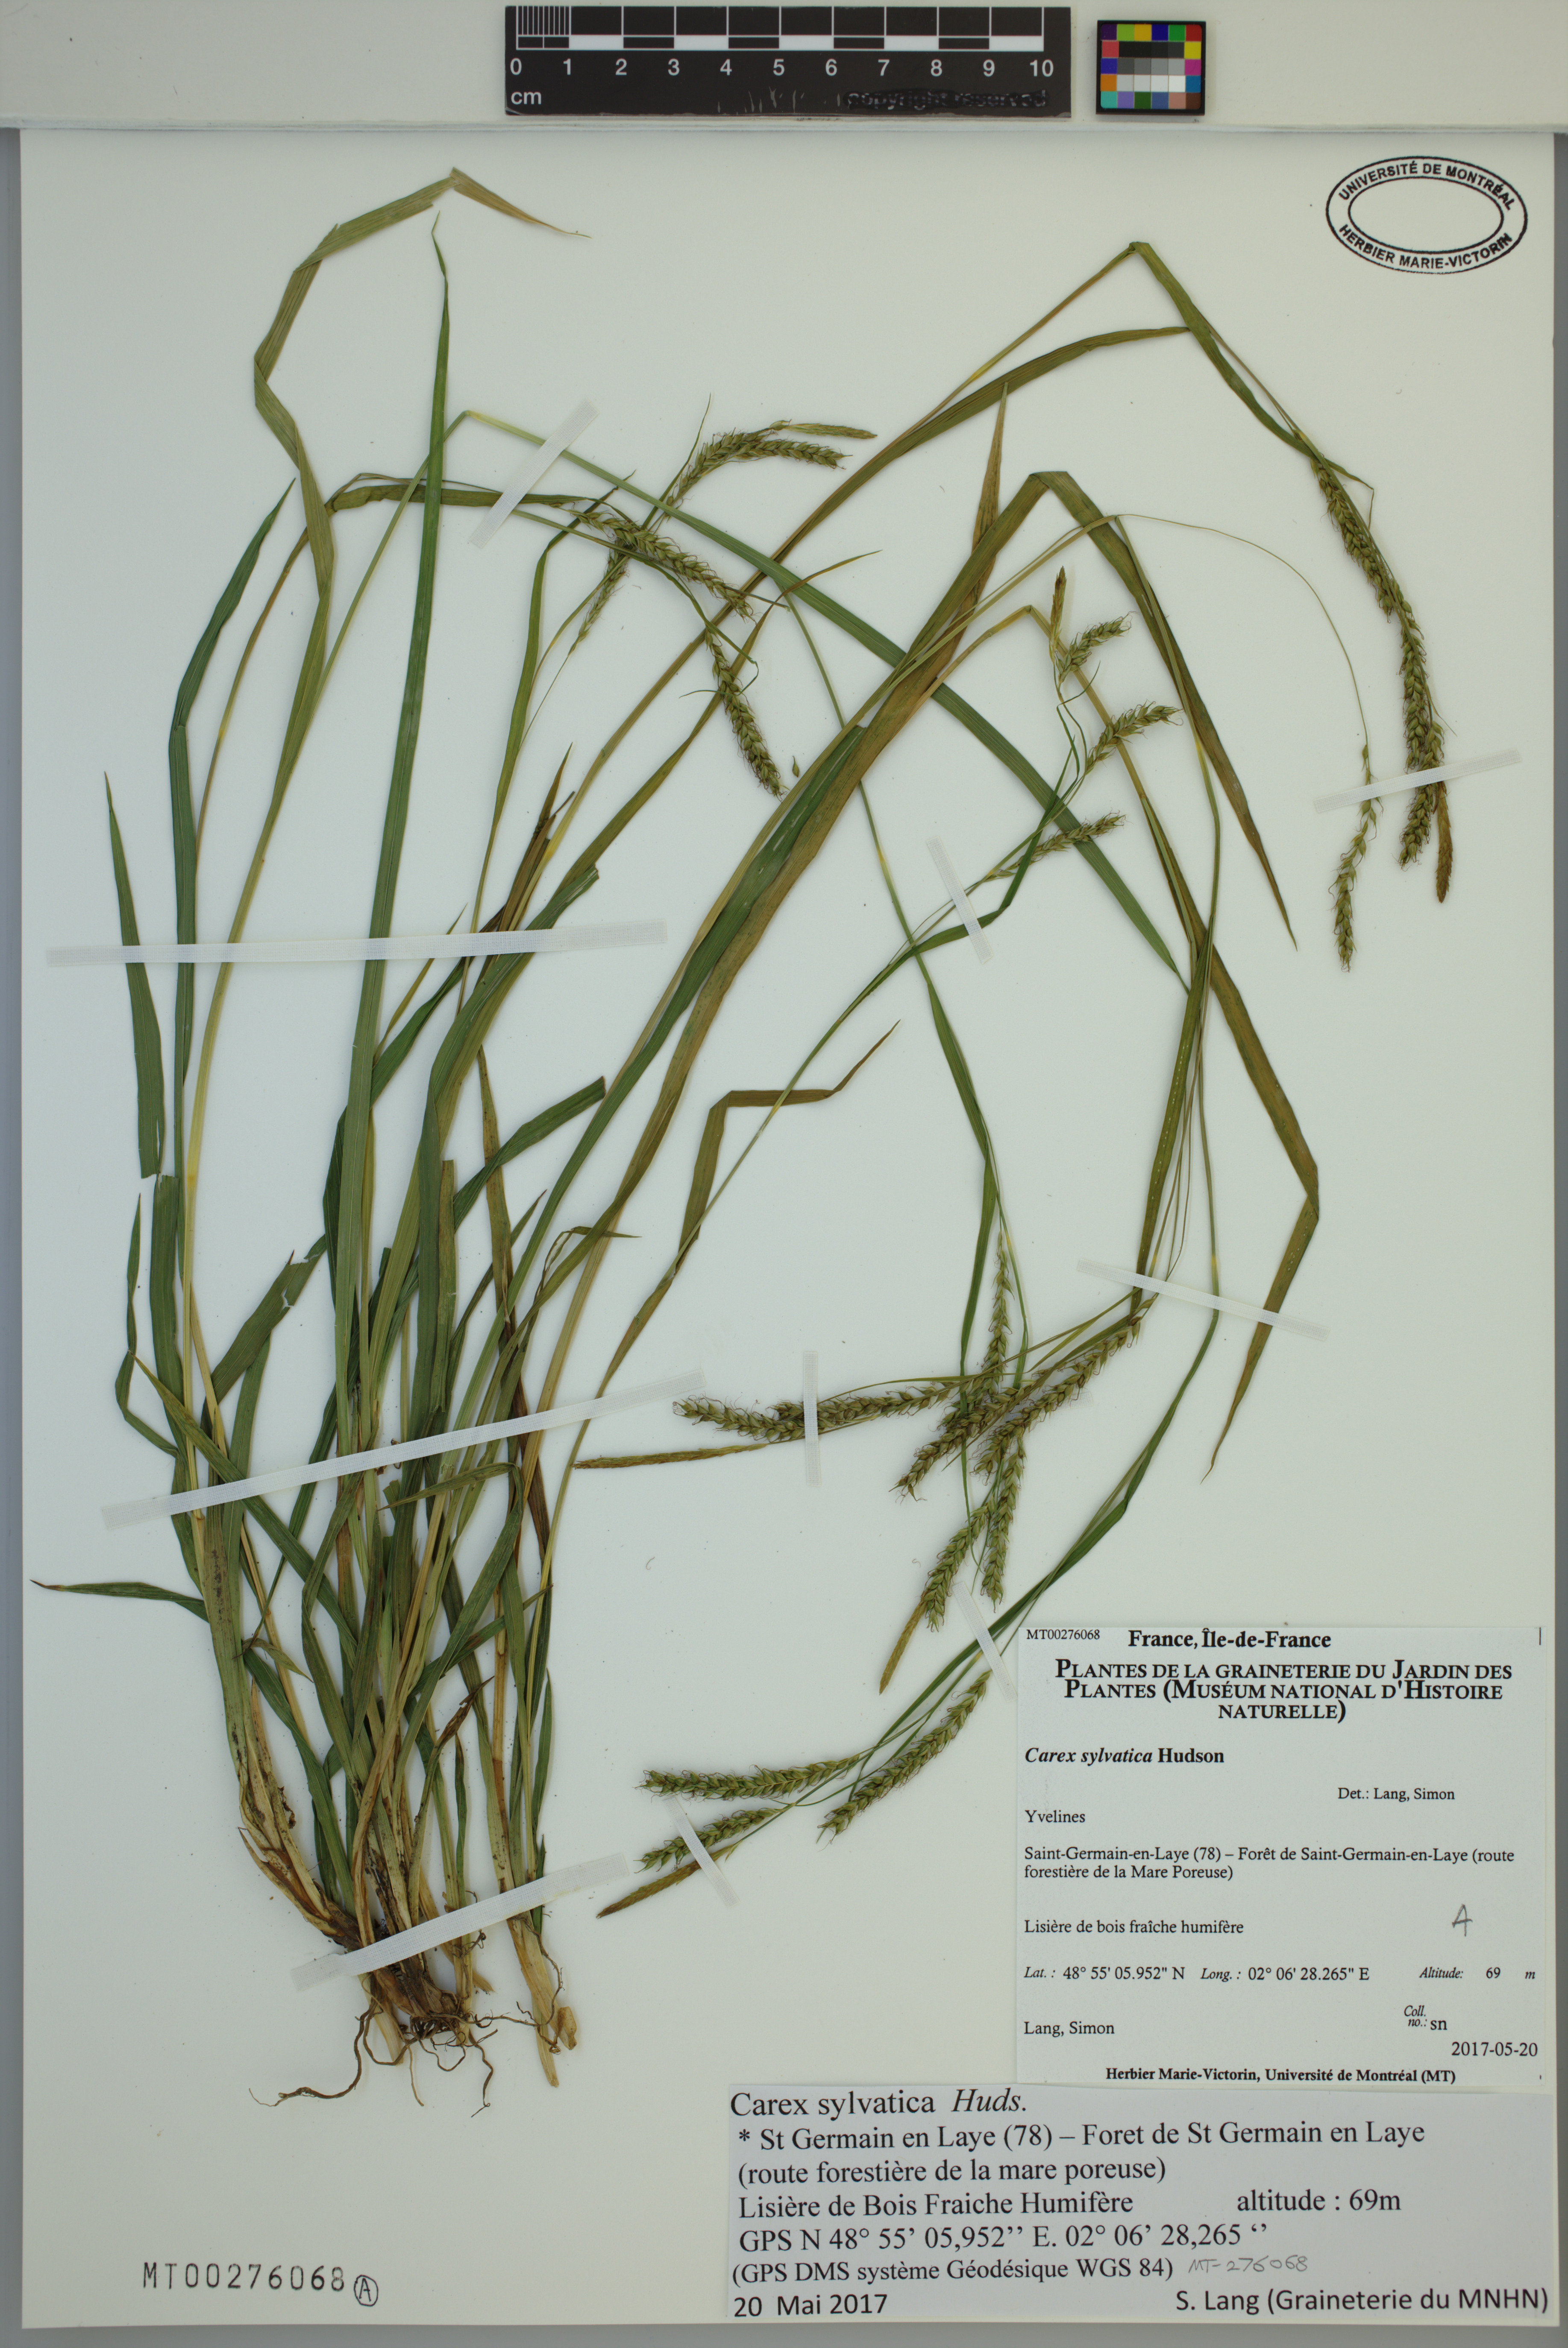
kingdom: Plantae
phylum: Tracheophyta
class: Liliopsida
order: Poales
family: Cyperaceae
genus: Carex
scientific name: Carex sylvatica
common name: Wood-sedge
